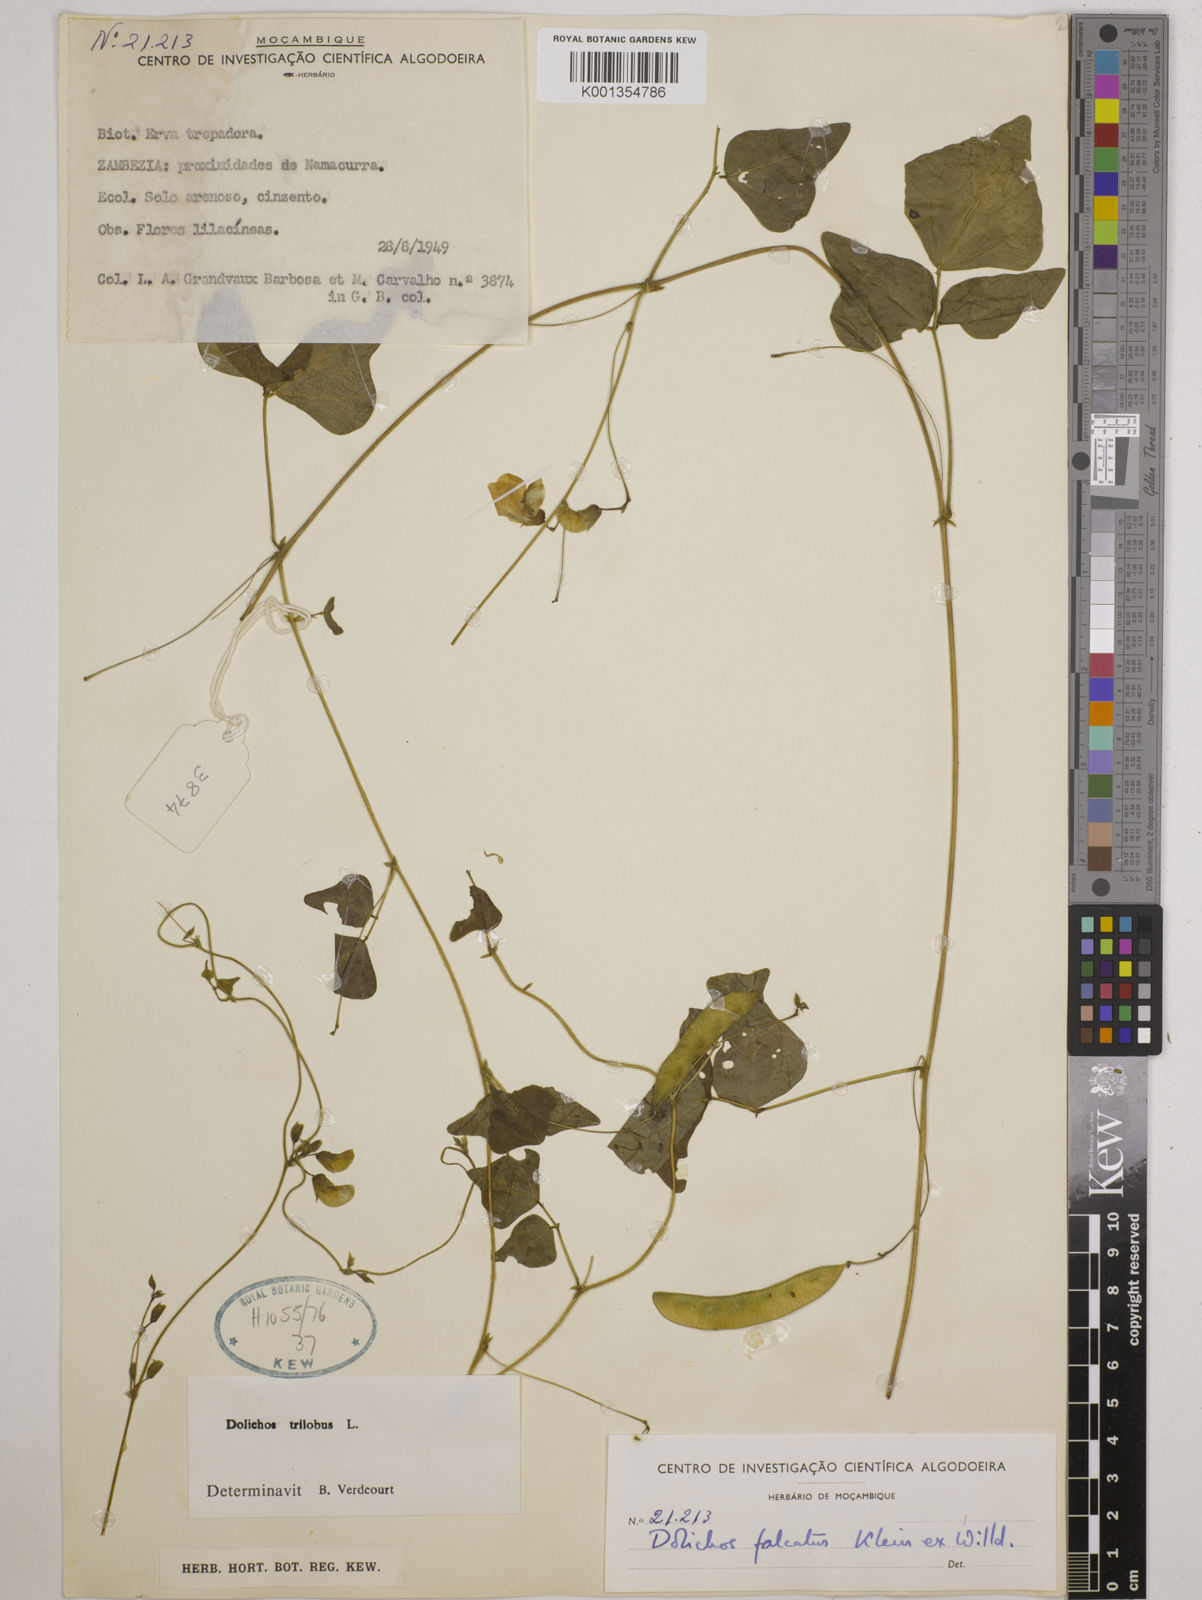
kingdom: Plantae
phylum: Tracheophyta
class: Magnoliopsida
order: Fabales
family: Fabaceae
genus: Dolichos
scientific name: Dolichos
